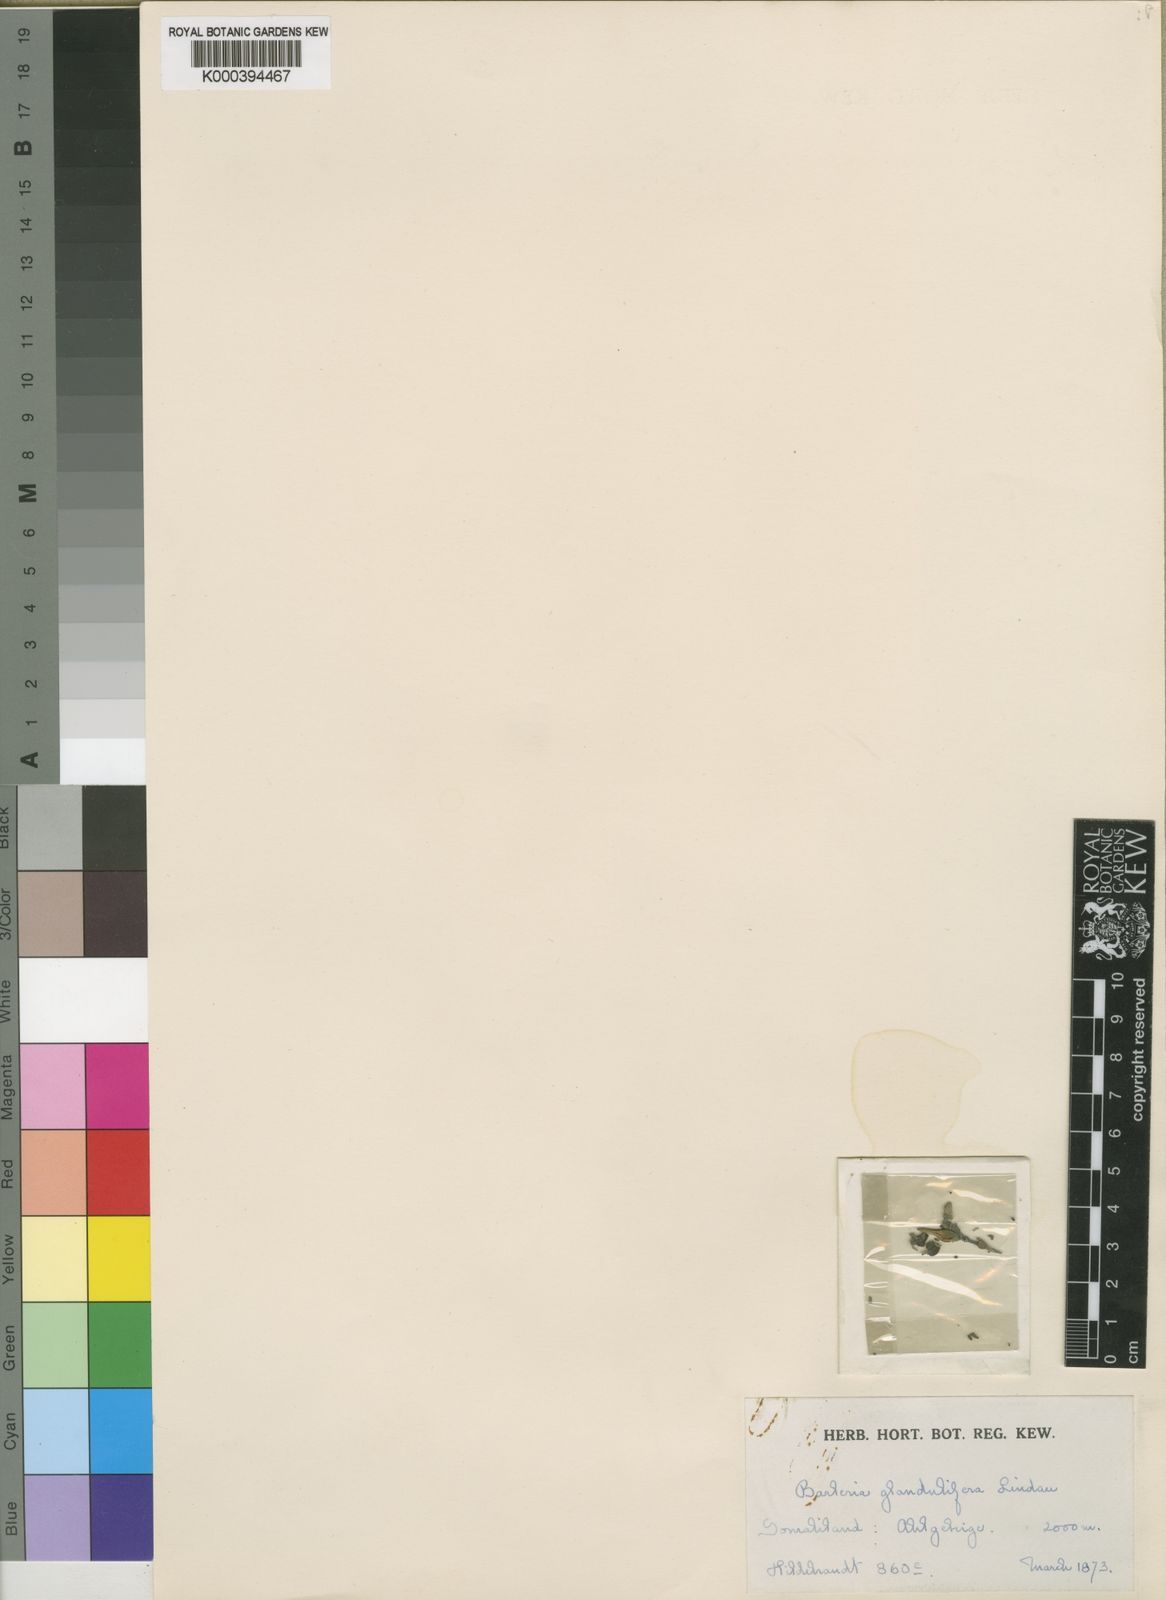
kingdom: Plantae
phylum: Tracheophyta
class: Magnoliopsida
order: Lamiales
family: Acanthaceae
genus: Barleria
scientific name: Barleria glandulifera
